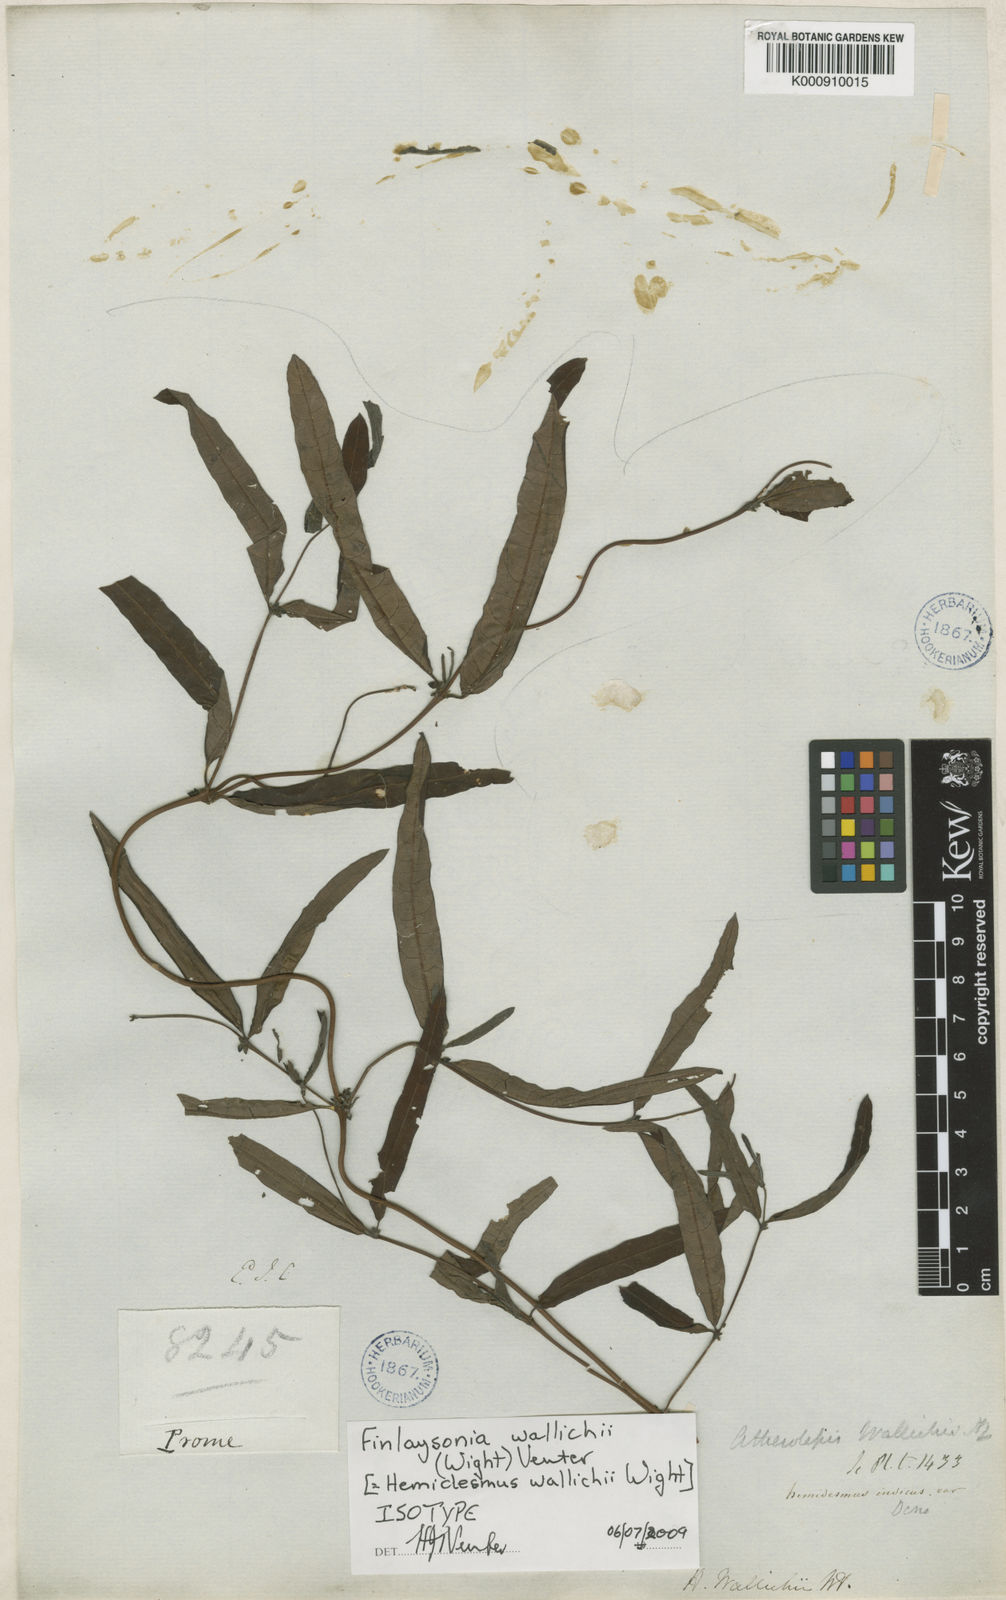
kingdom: Plantae
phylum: Tracheophyta
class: Magnoliopsida
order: Gentianales
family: Apocynaceae
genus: Finlaysonia
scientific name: Finlaysonia wallichii
